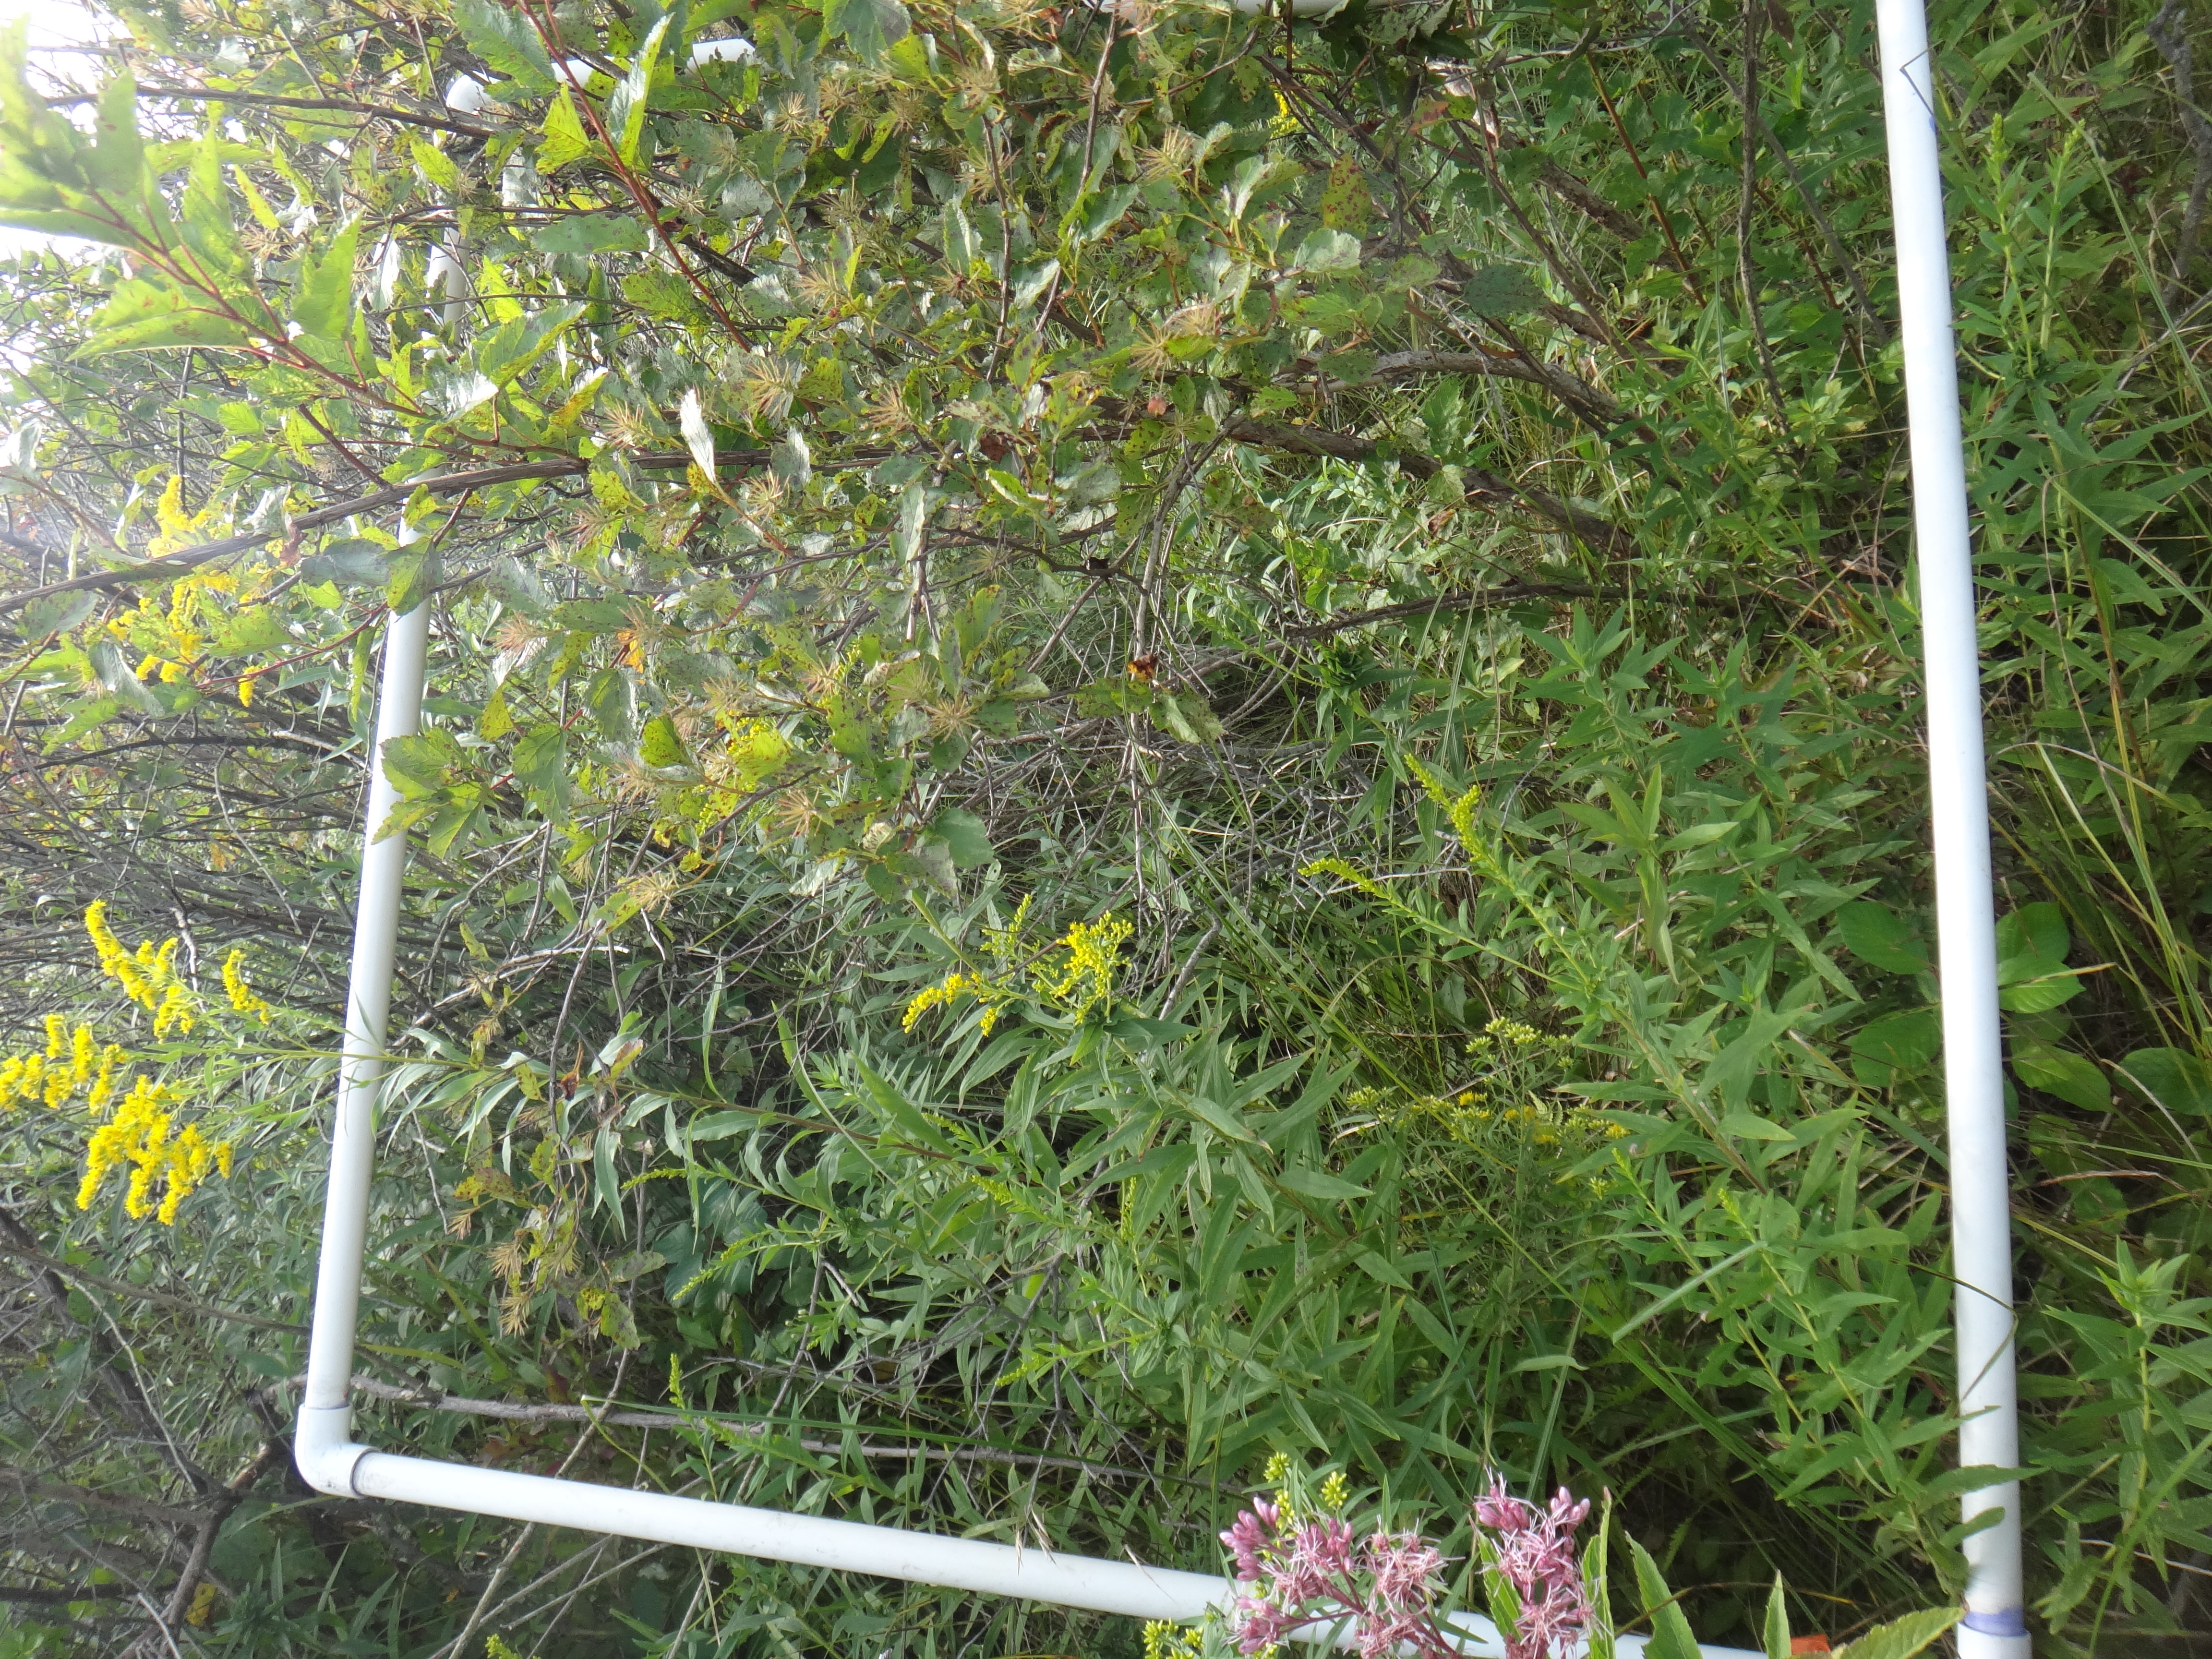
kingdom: Plantae
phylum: Tracheophyta
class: Magnoliopsida
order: Cornales
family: Cornaceae
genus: Cornus
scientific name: Cornus foemina
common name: Swamp dogwood
